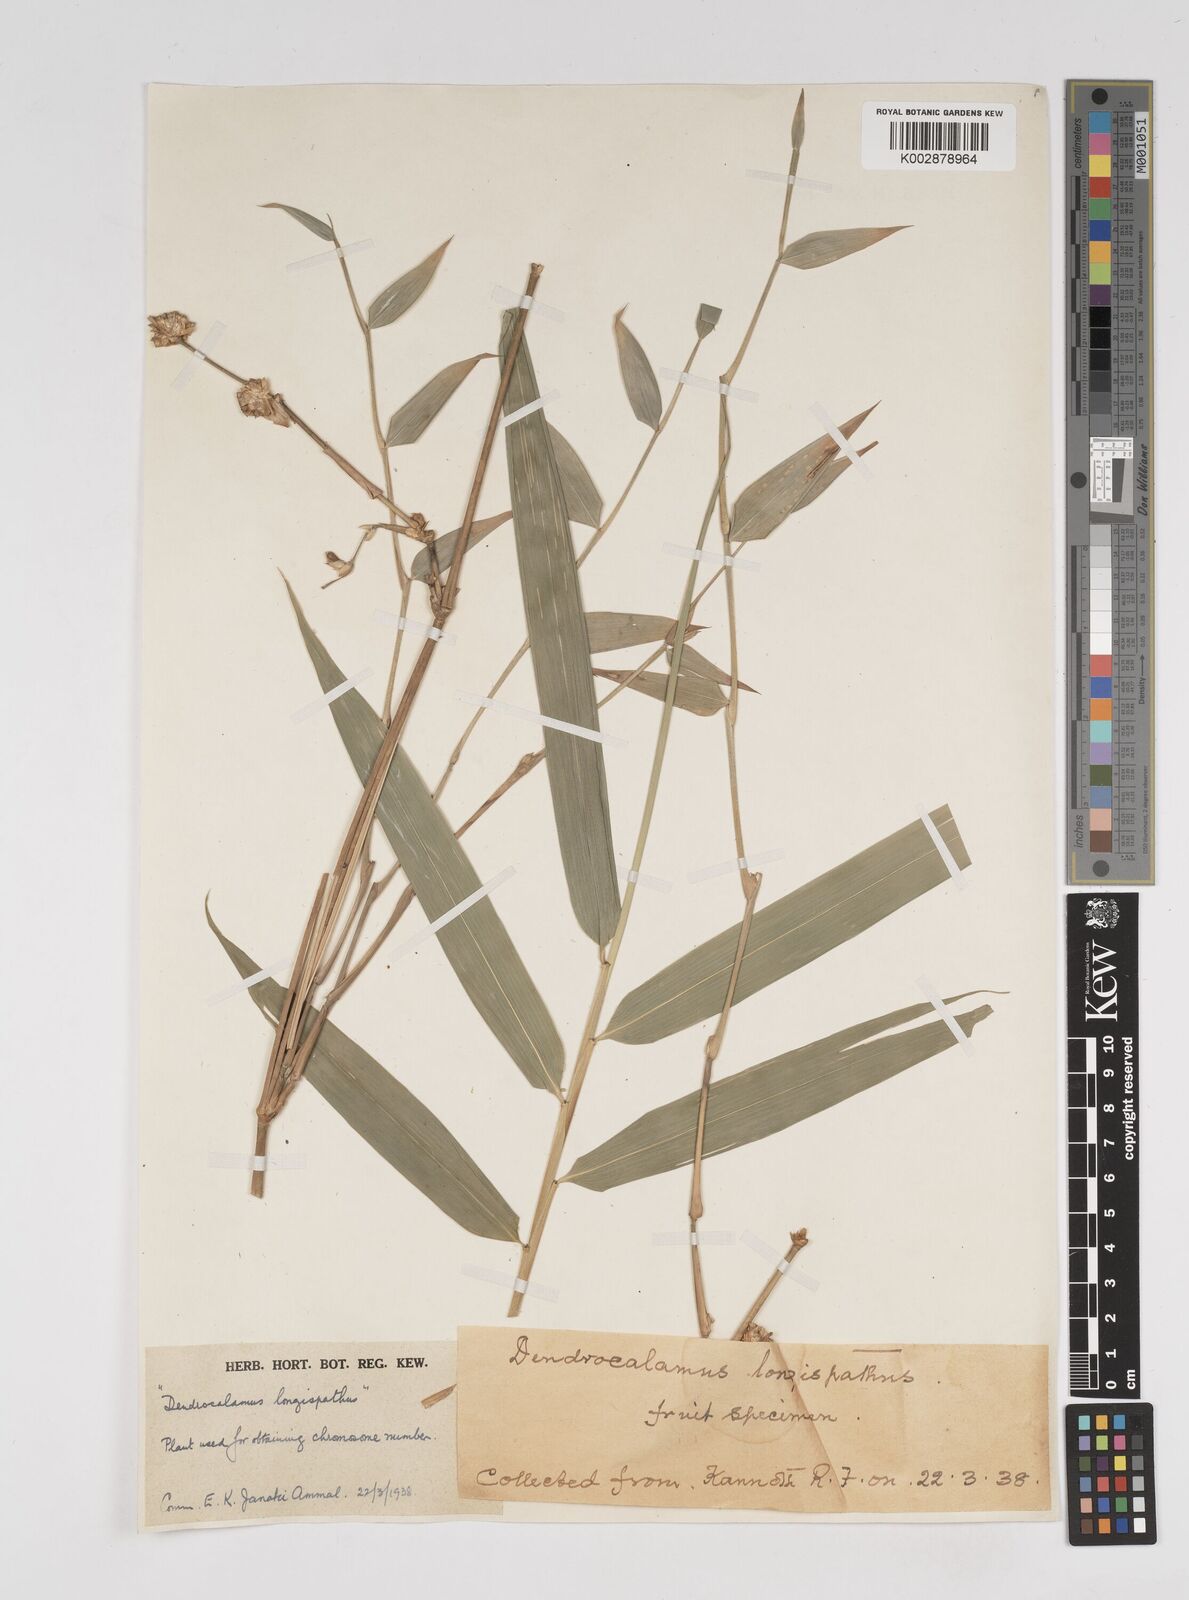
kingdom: Plantae
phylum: Tracheophyta
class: Liliopsida
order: Poales
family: Poaceae
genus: Dendrocalamus
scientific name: Dendrocalamus longispathus
